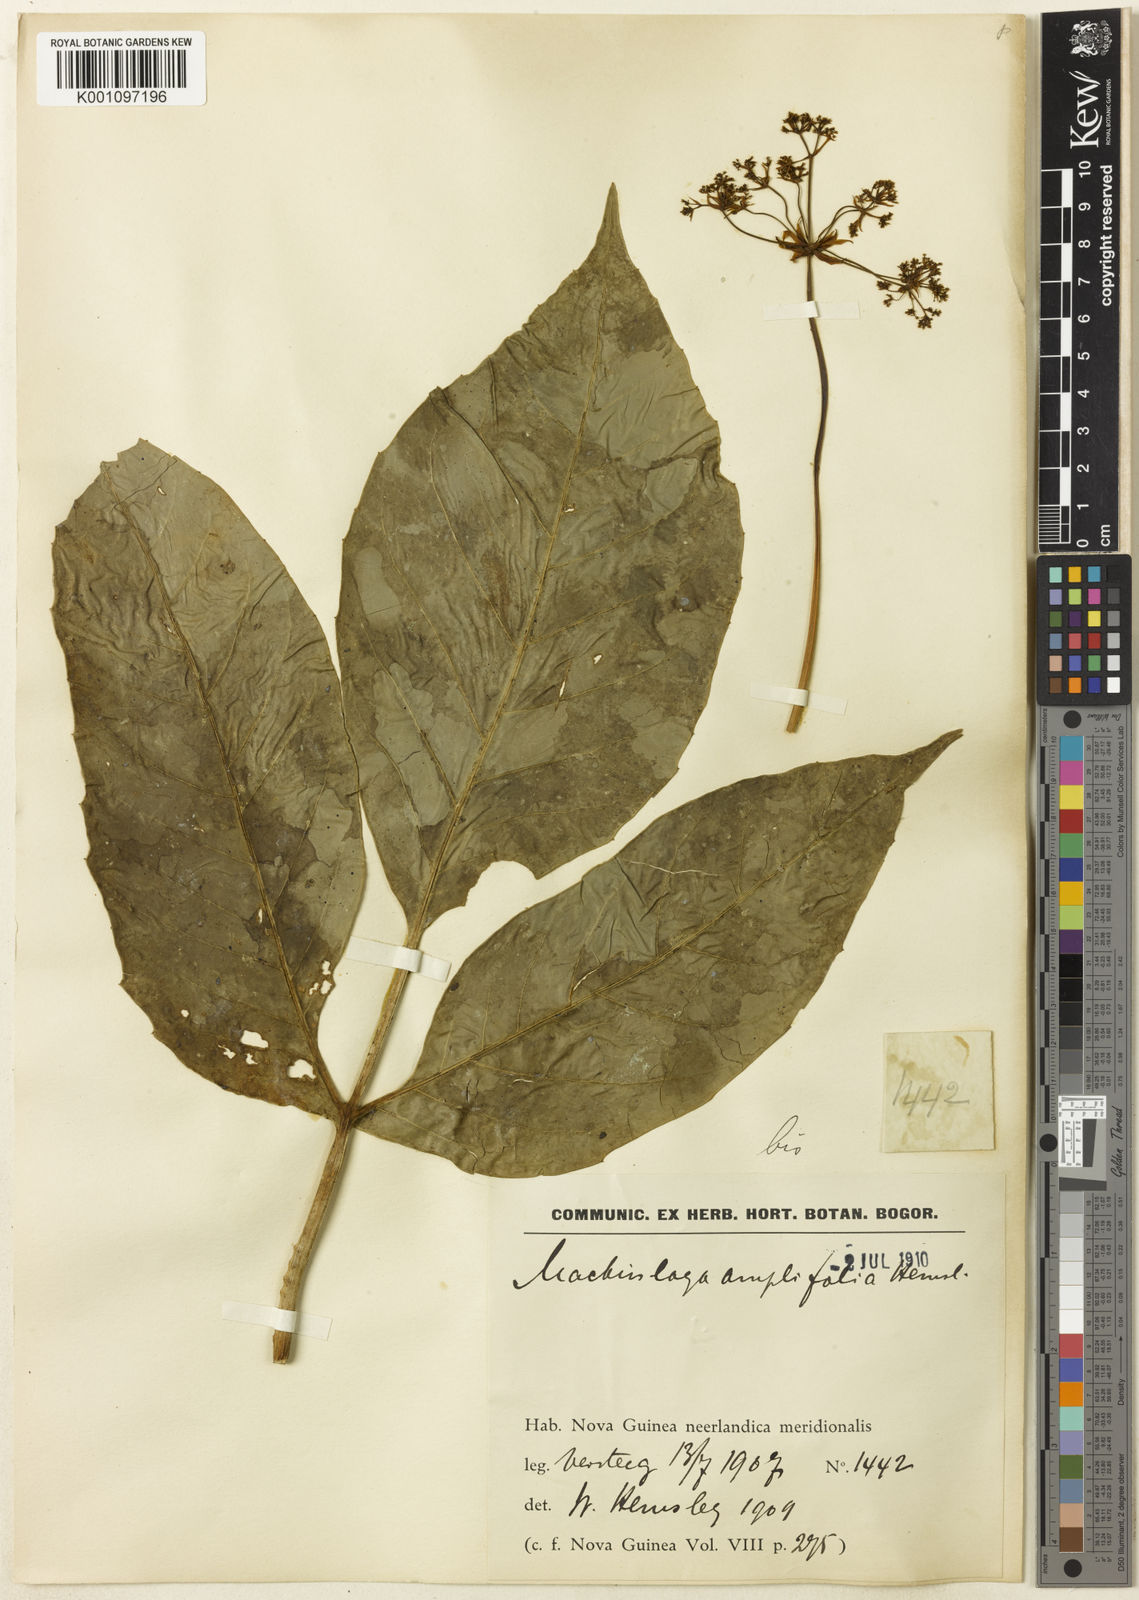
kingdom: Plantae
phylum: Tracheophyta
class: Magnoliopsida
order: Apiales
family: Apiaceae
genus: Mackinlaya
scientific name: Mackinlaya celebica
